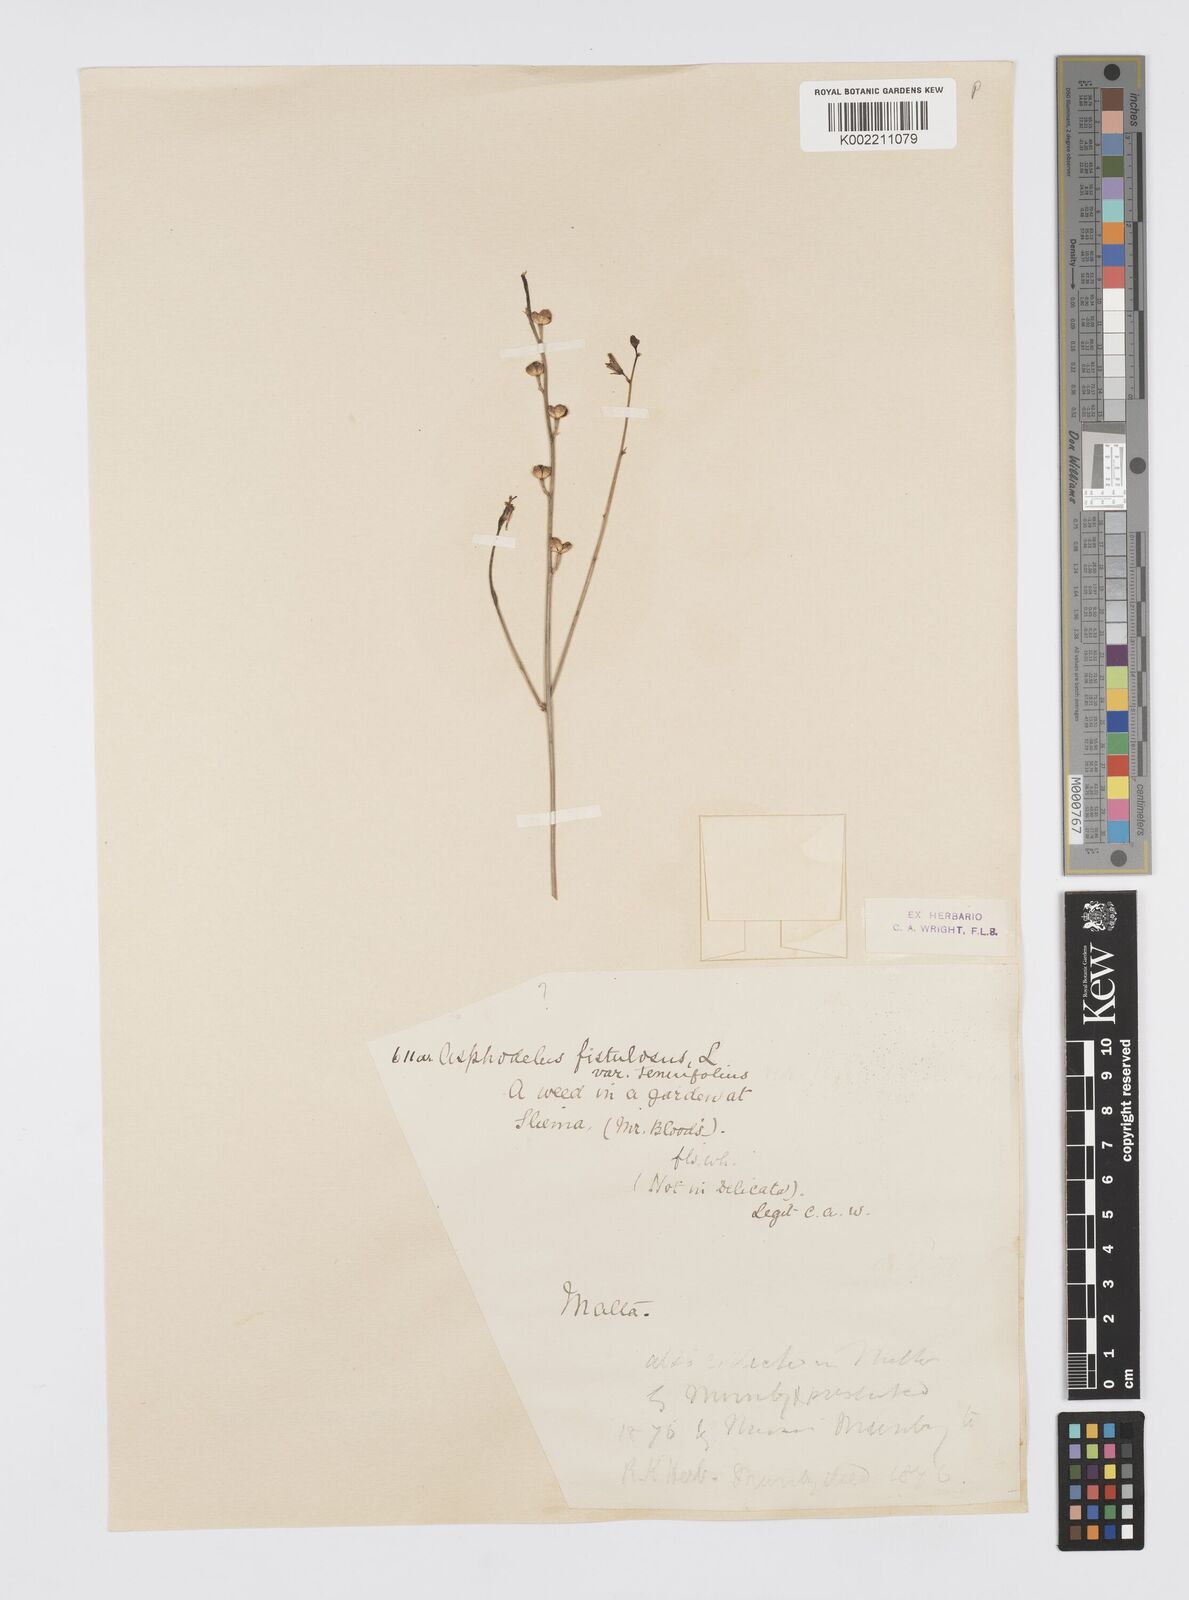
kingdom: Plantae
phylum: Tracheophyta
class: Liliopsida
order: Asparagales
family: Asphodelaceae
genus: Asphodelus
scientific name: Asphodelus fistulosus
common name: Onionweed
